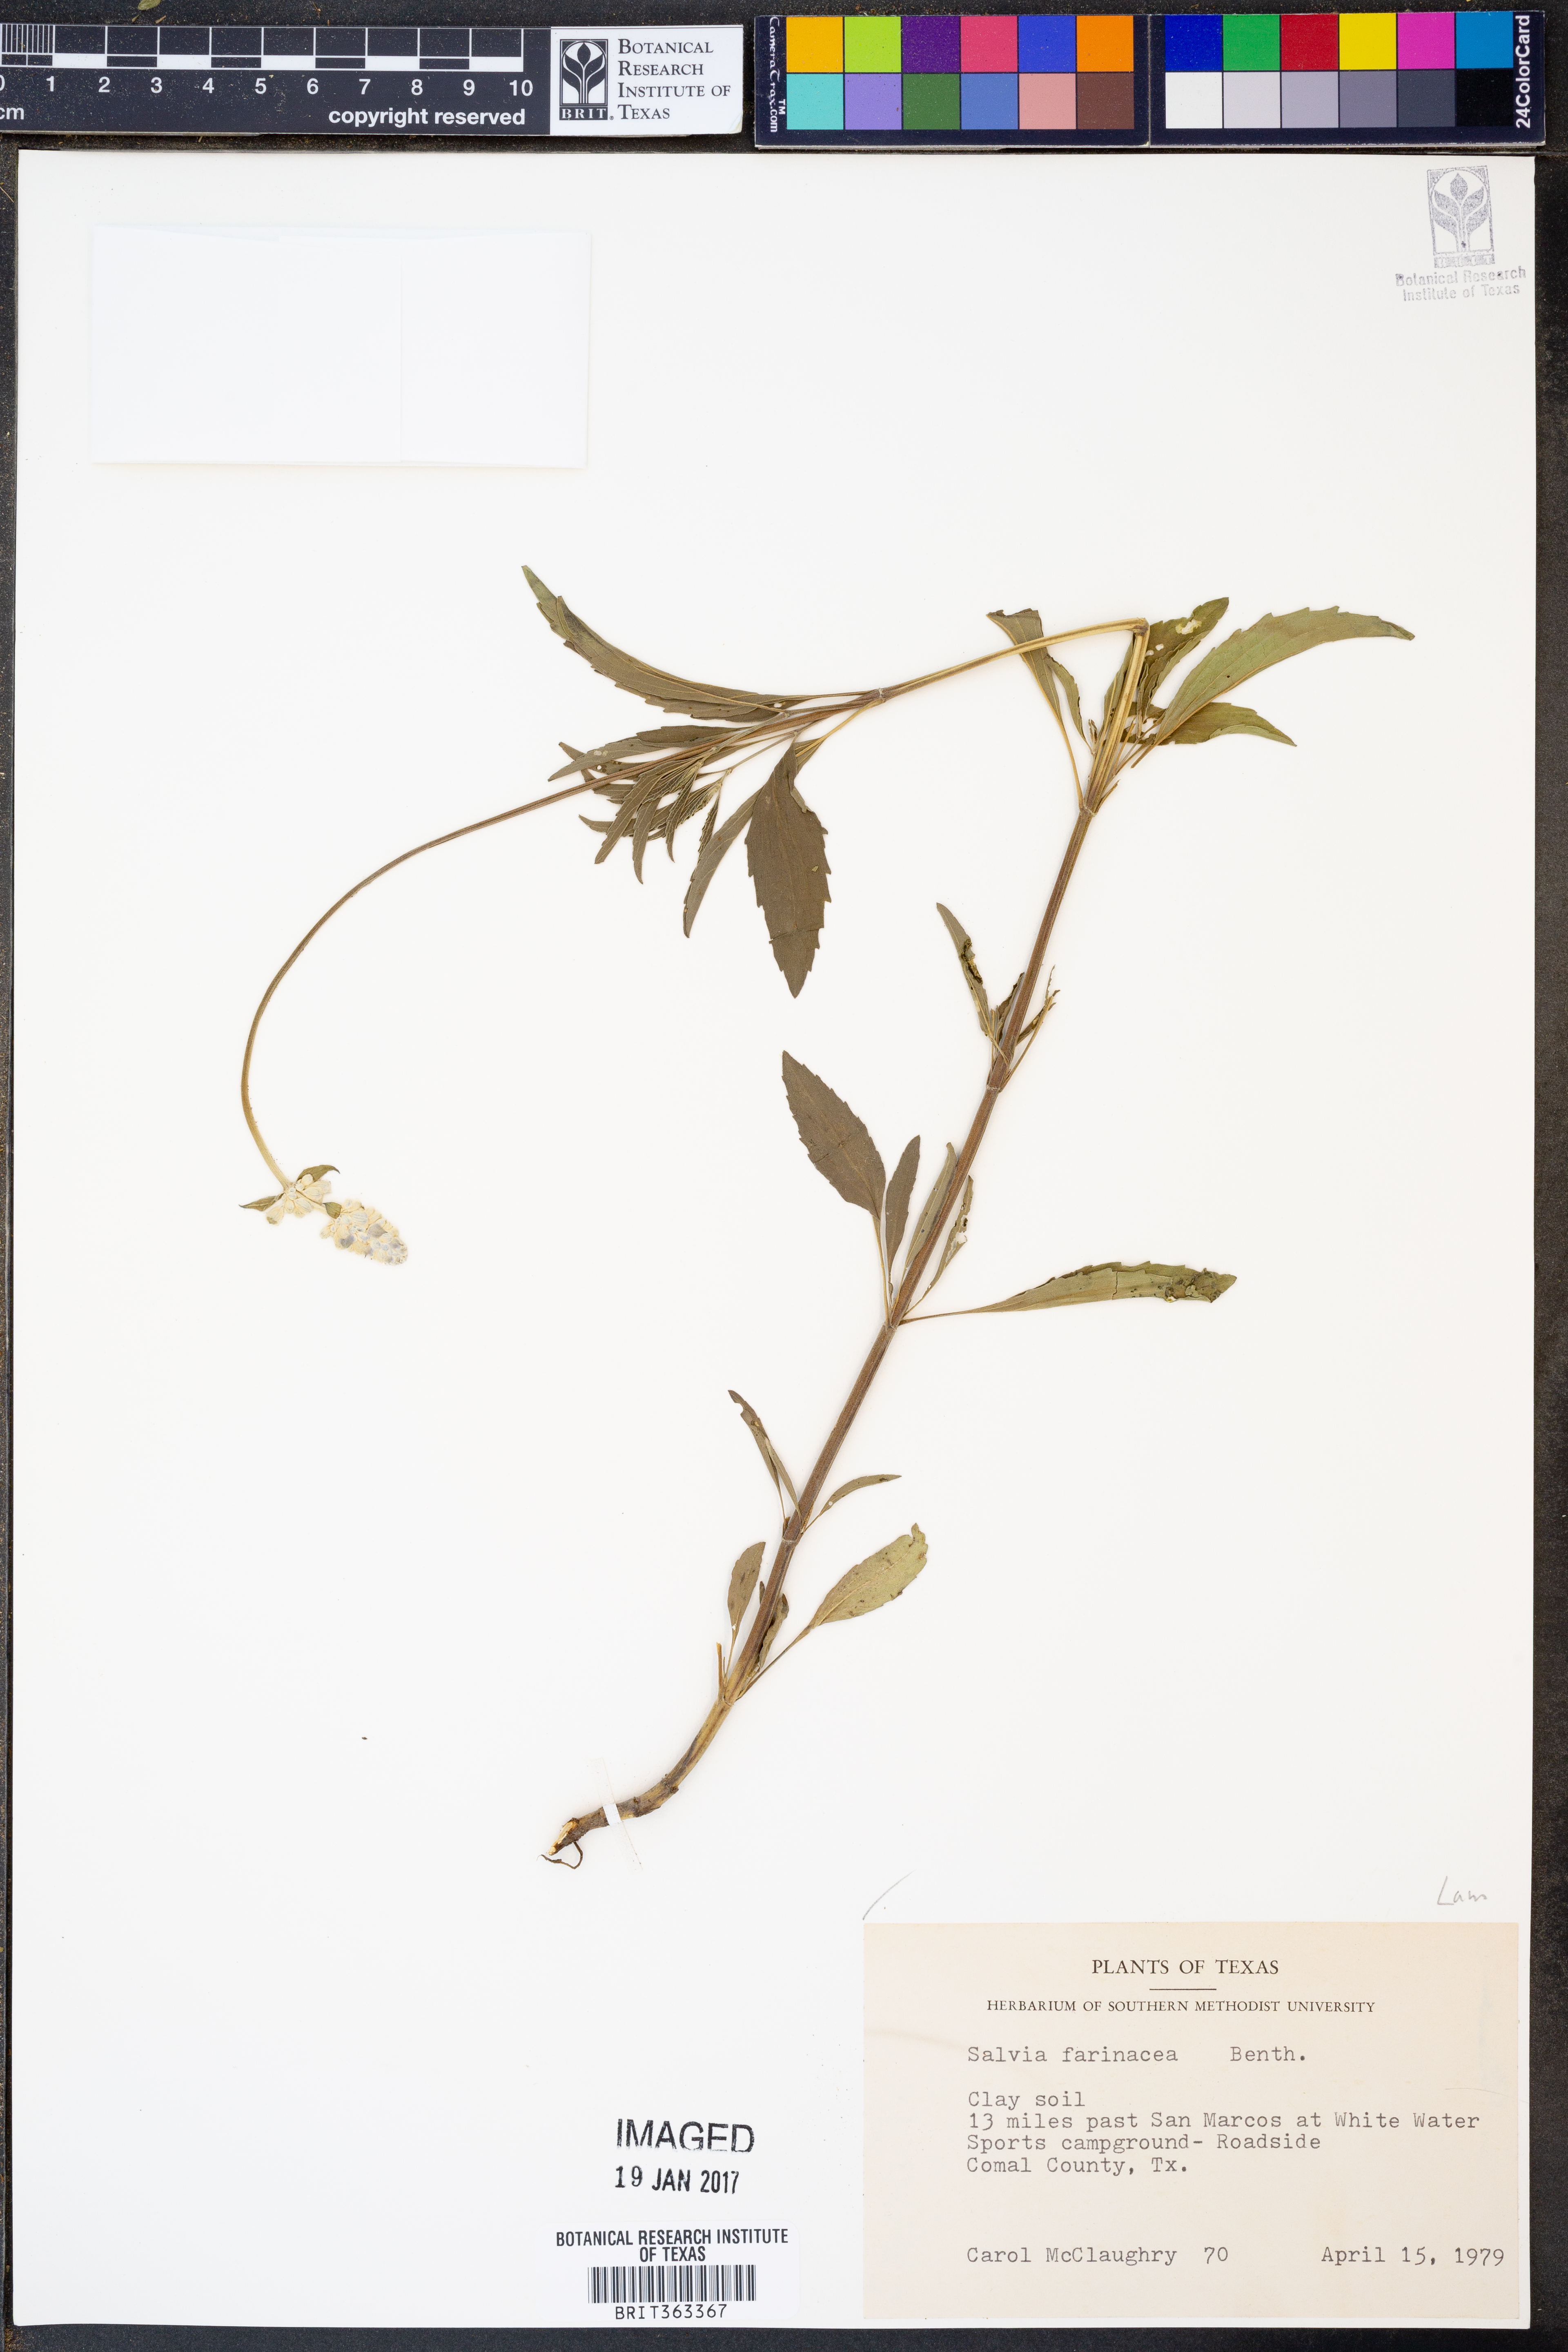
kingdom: Plantae
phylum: Tracheophyta
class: Magnoliopsida
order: Lamiales
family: Lamiaceae
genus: Salvia
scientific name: Salvia farinacea
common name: Mealy sage
